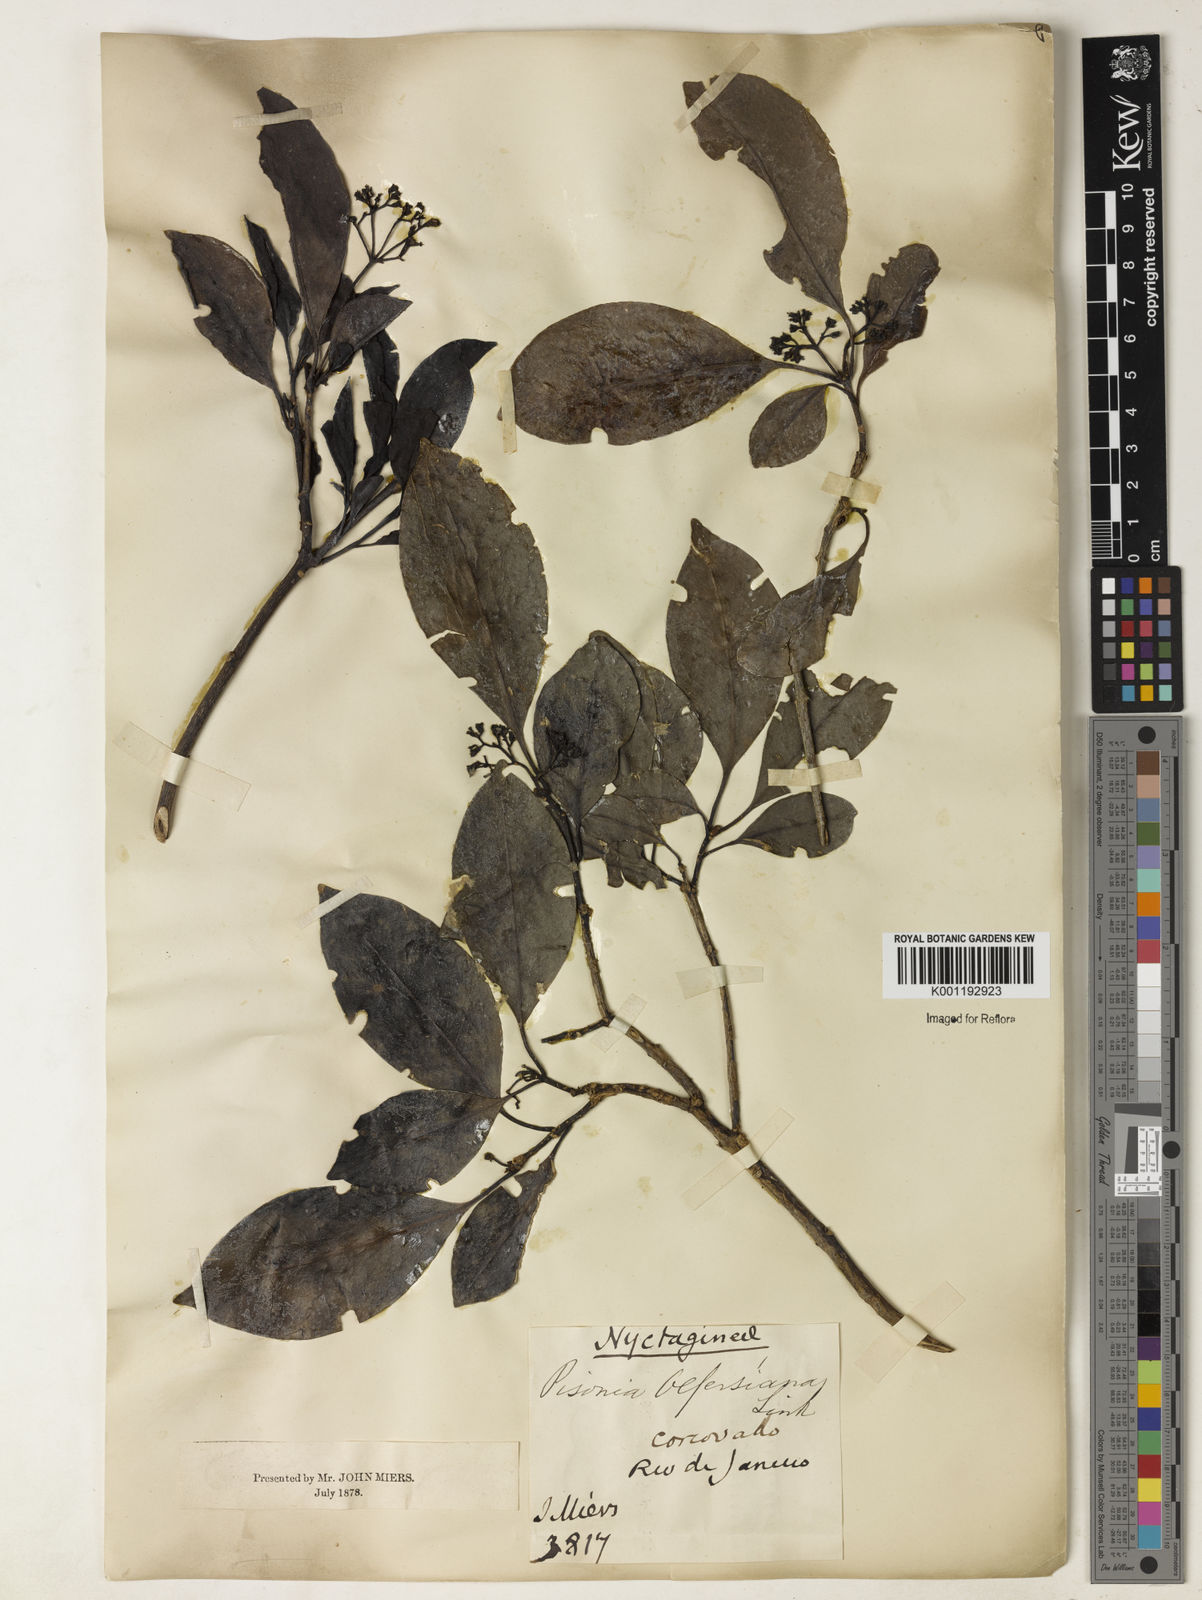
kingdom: Plantae
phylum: Tracheophyta
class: Magnoliopsida
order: Caryophyllales
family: Nyctaginaceae
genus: Guapira
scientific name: Guapira
